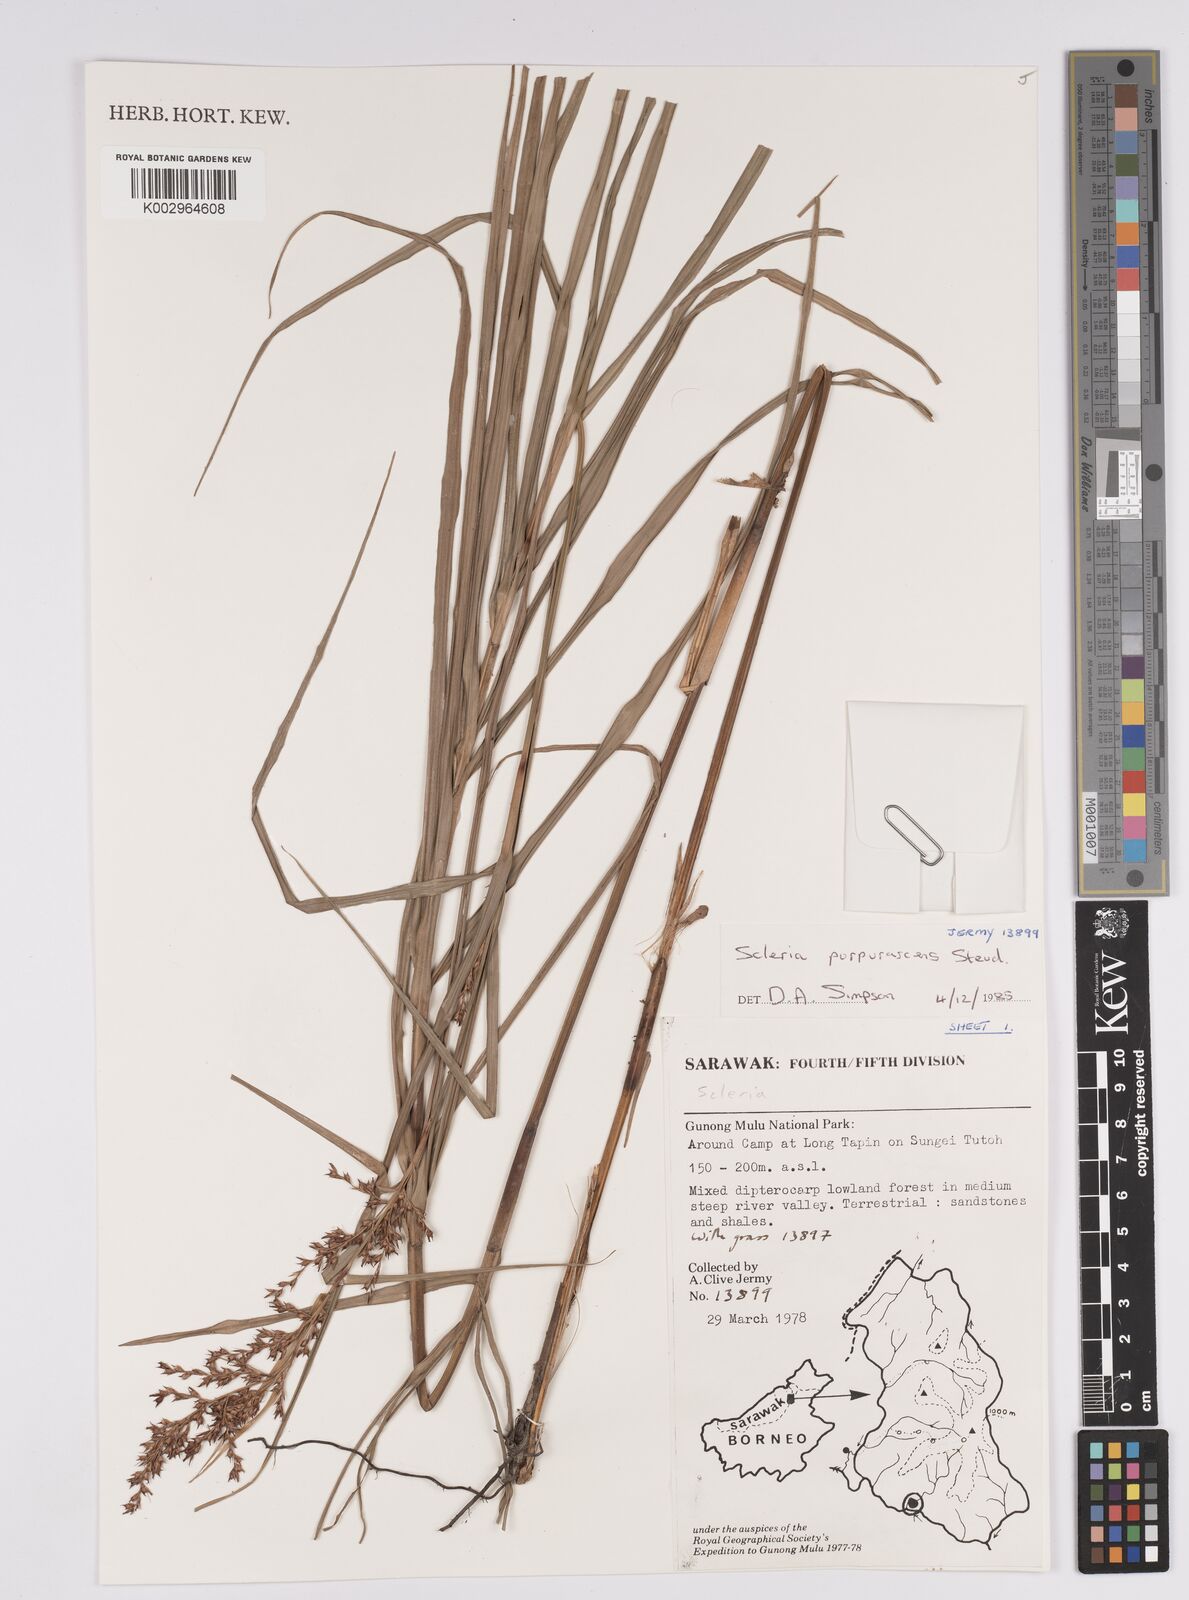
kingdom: Plantae
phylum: Tracheophyta
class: Liliopsida
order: Poales
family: Cyperaceae
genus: Scleria
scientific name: Scleria purpurascens
